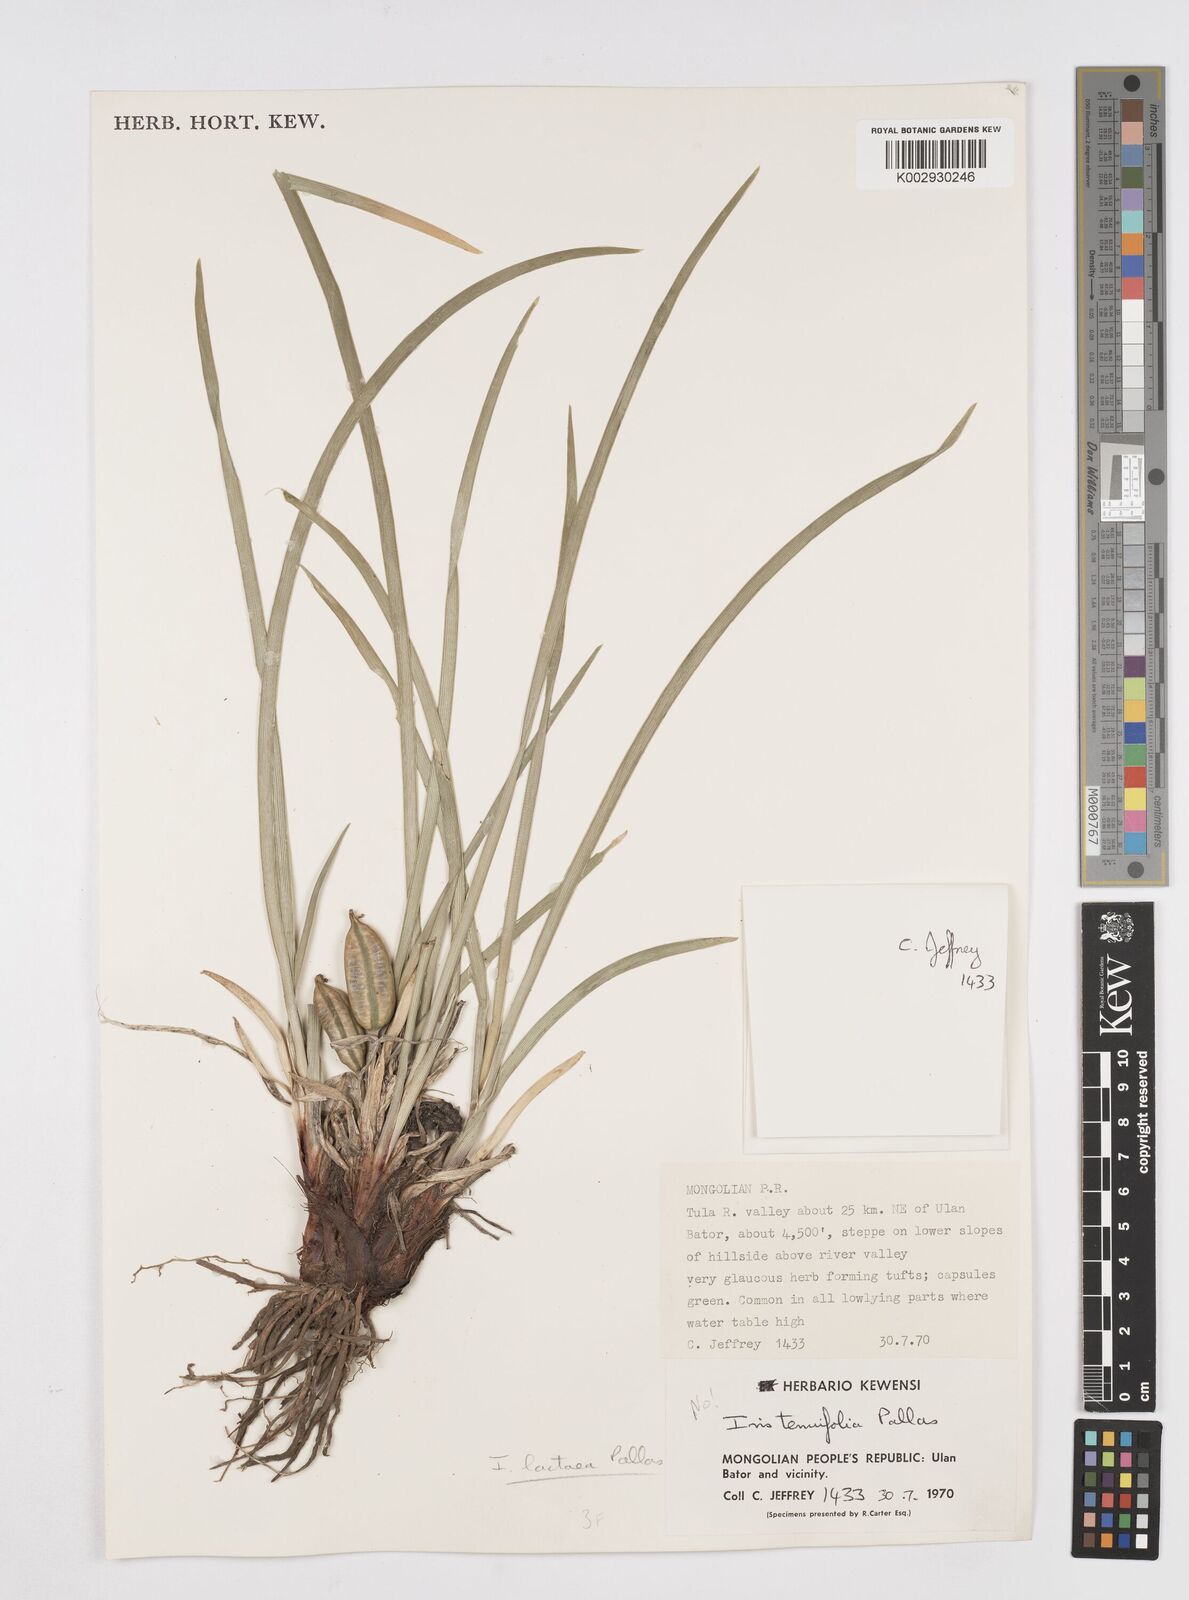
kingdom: Plantae
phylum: Tracheophyta
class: Liliopsida
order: Asparagales
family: Iridaceae
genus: Iris
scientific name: Iris lactea
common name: White-flower chinese iris
